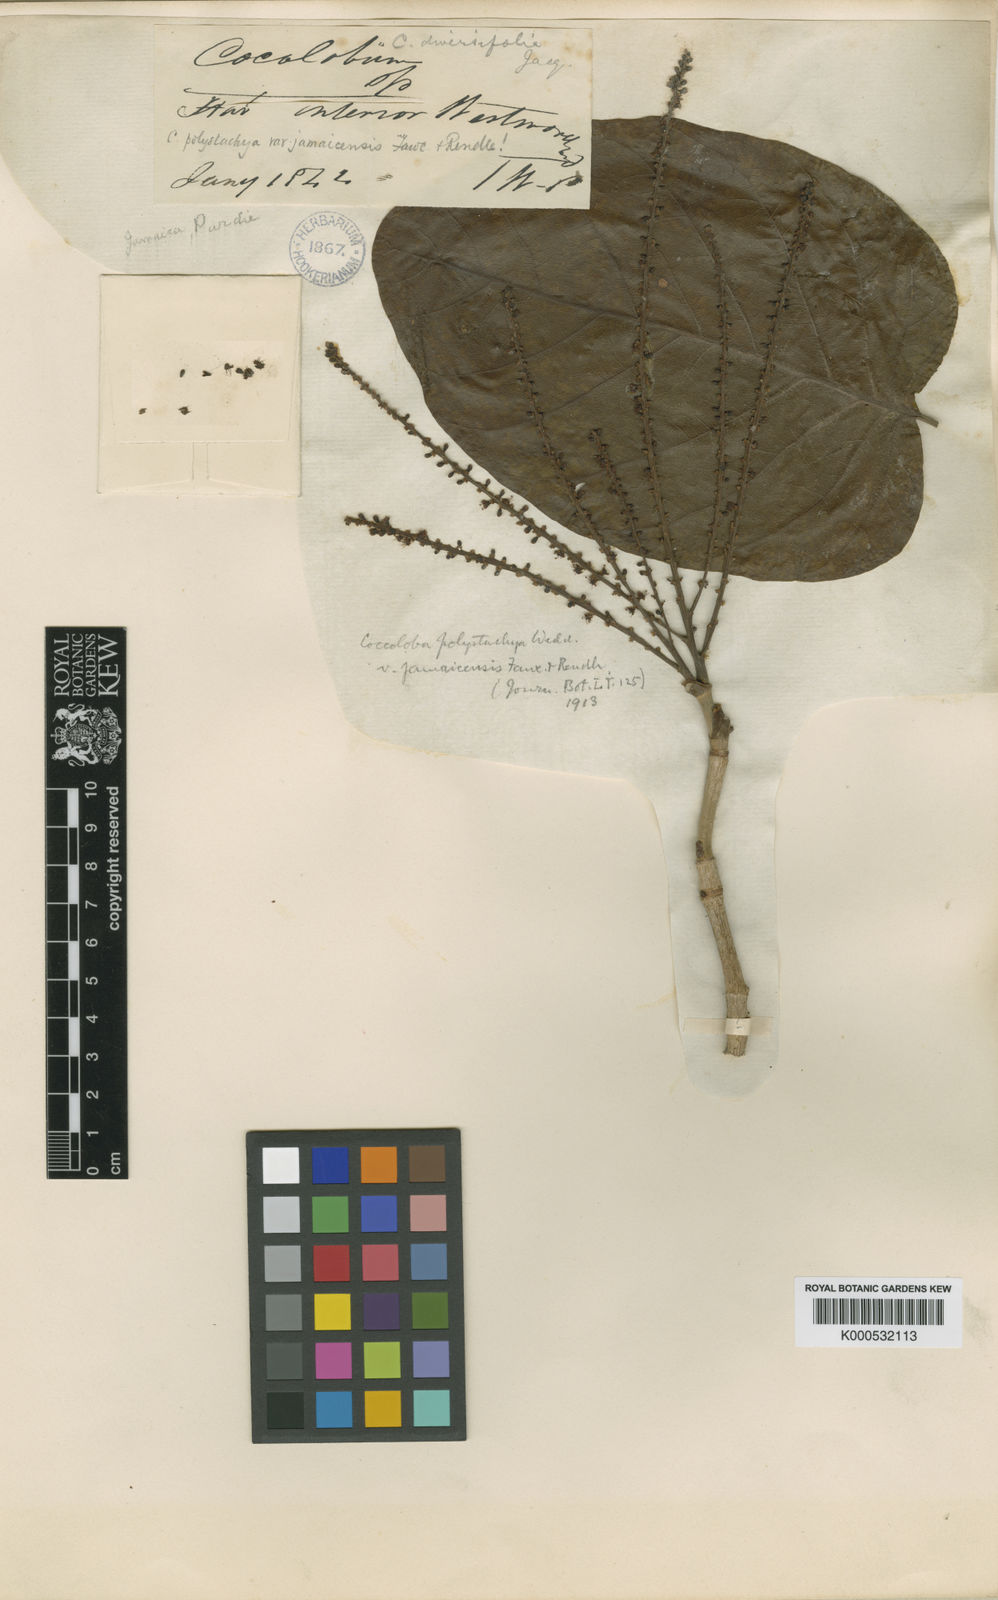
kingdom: Plantae
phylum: Tracheophyta
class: Magnoliopsida
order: Caryophyllales
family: Polygonaceae
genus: Coccoloba
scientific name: Coccoloba plumieri
